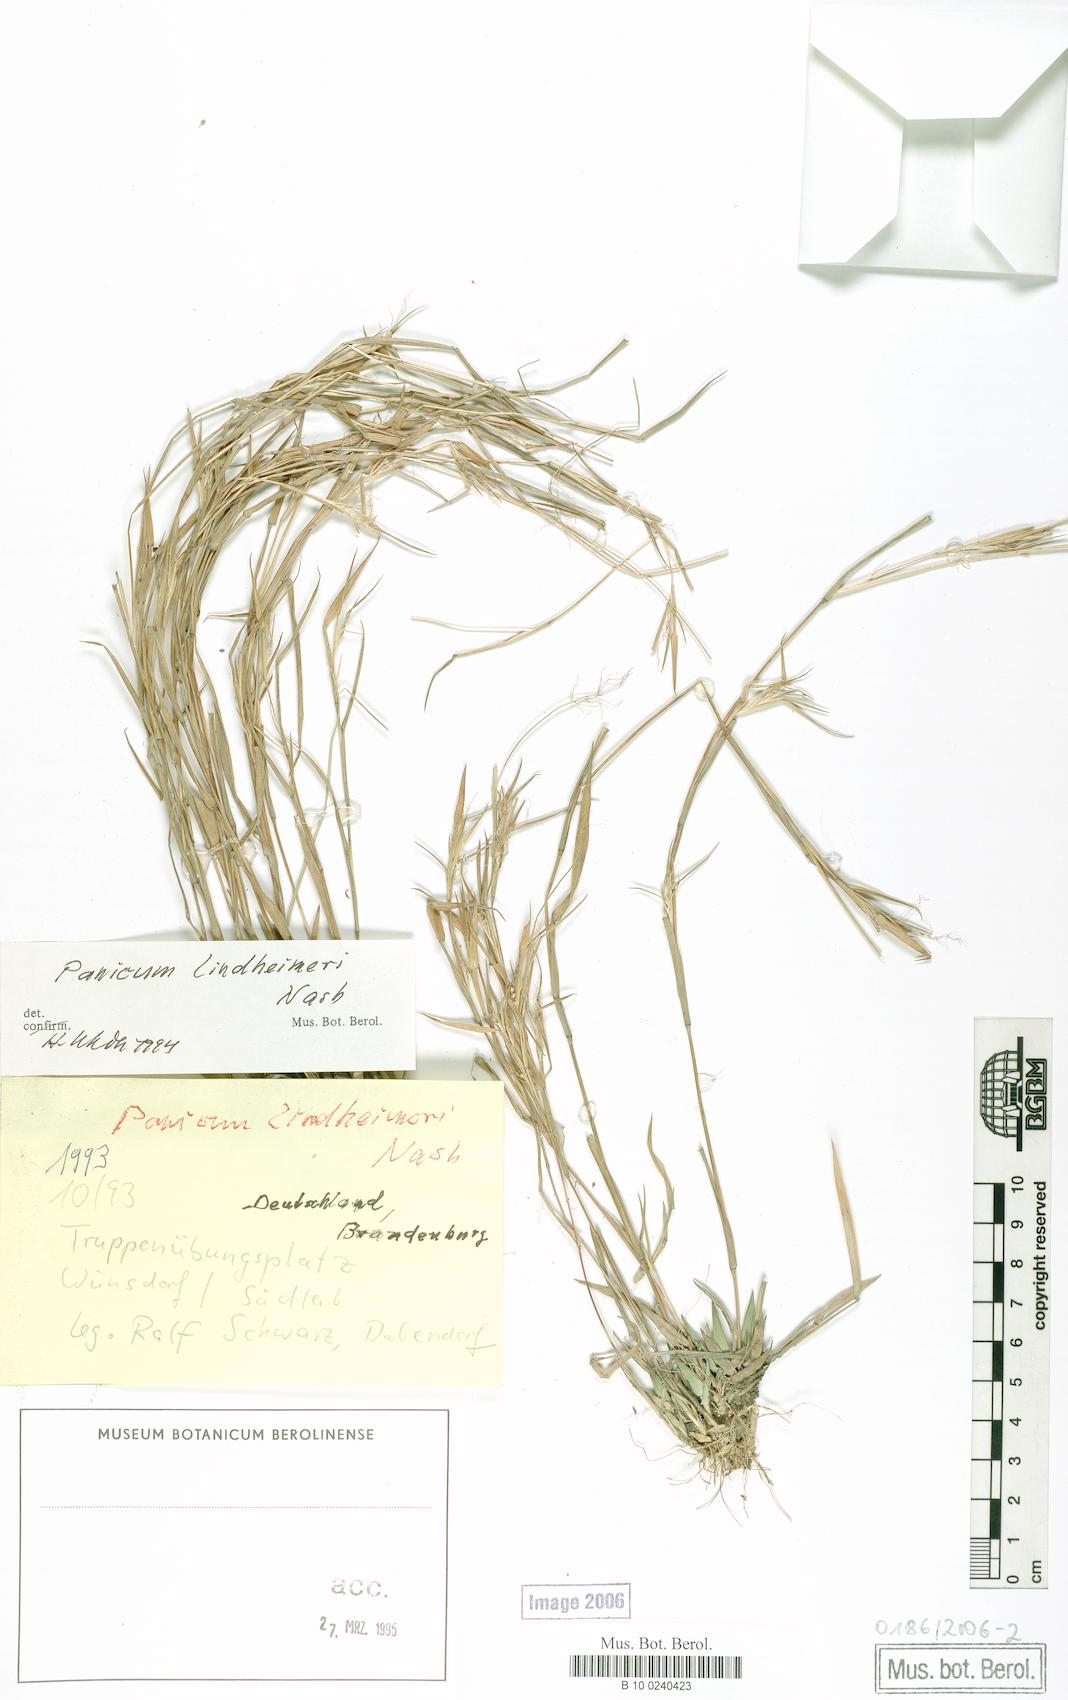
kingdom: Plantae
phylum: Tracheophyta
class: Liliopsida
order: Poales
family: Poaceae
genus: Dichanthelium
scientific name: Dichanthelium lindheimeri
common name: Lindheimer's panicgrass
